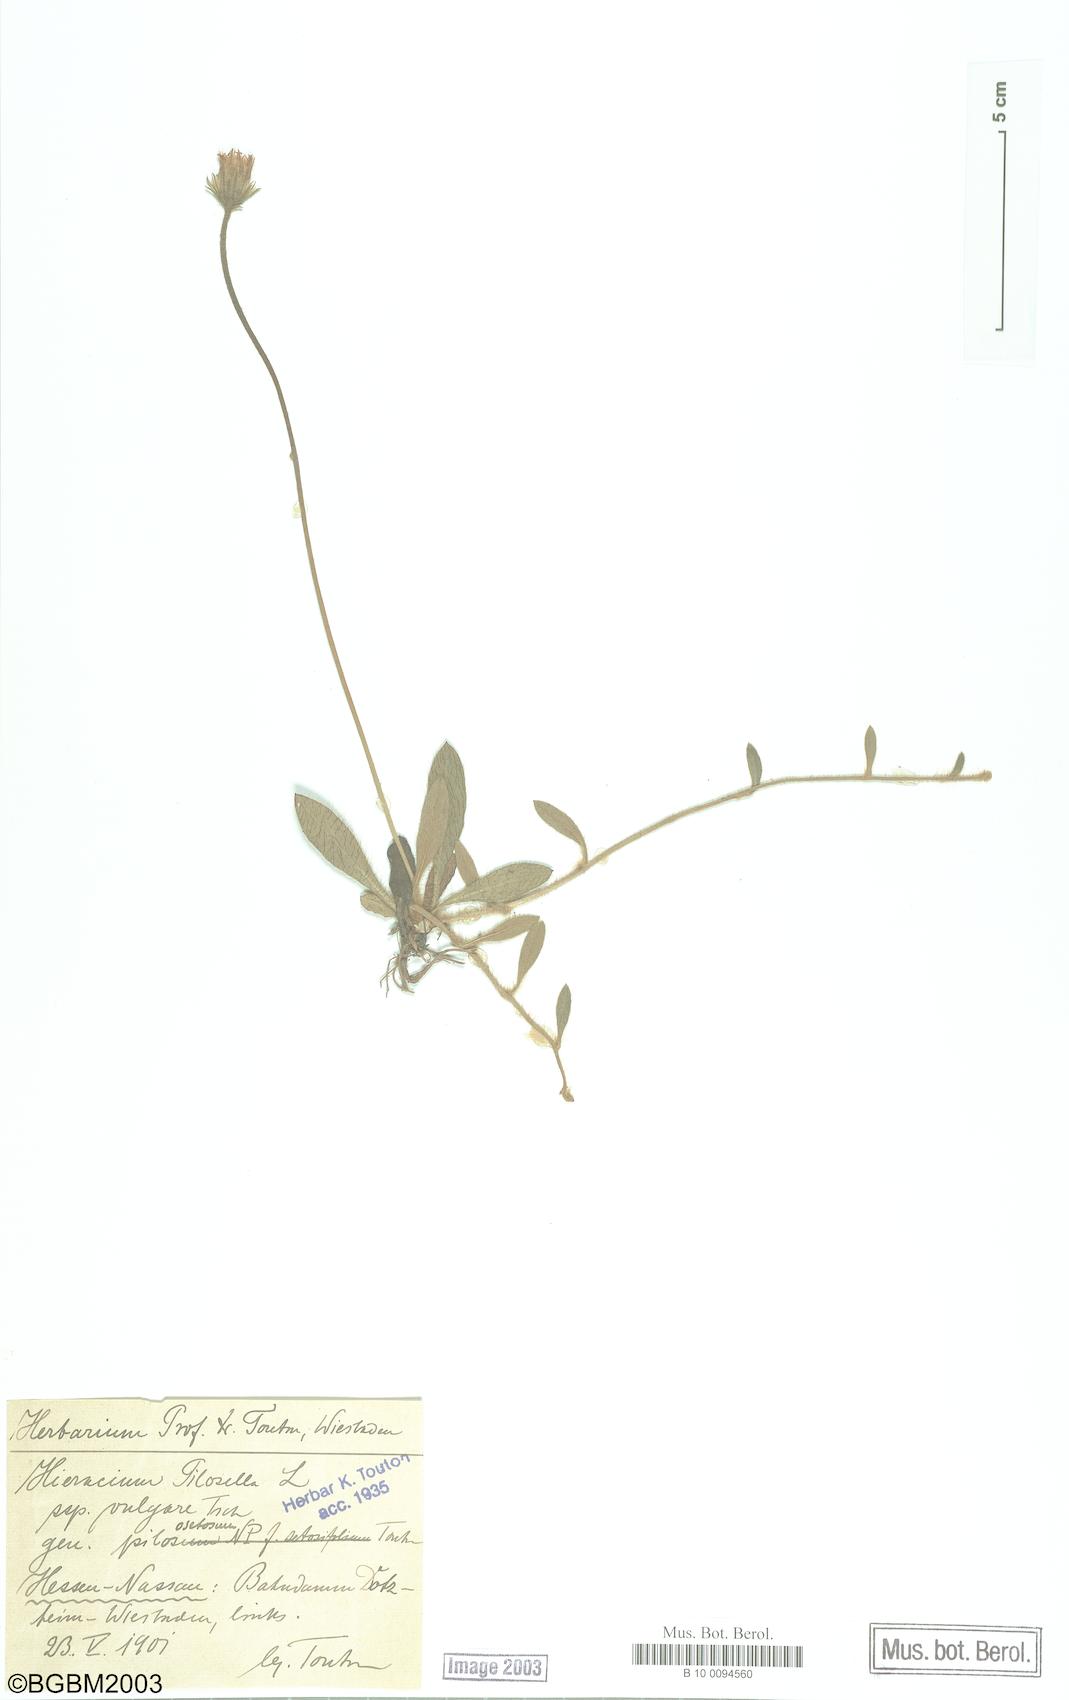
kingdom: Plantae
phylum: Tracheophyta
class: Magnoliopsida
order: Asterales
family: Asteraceae
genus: Pilosella
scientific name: Pilosella officinarum
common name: Mouse-ear hawkweed
